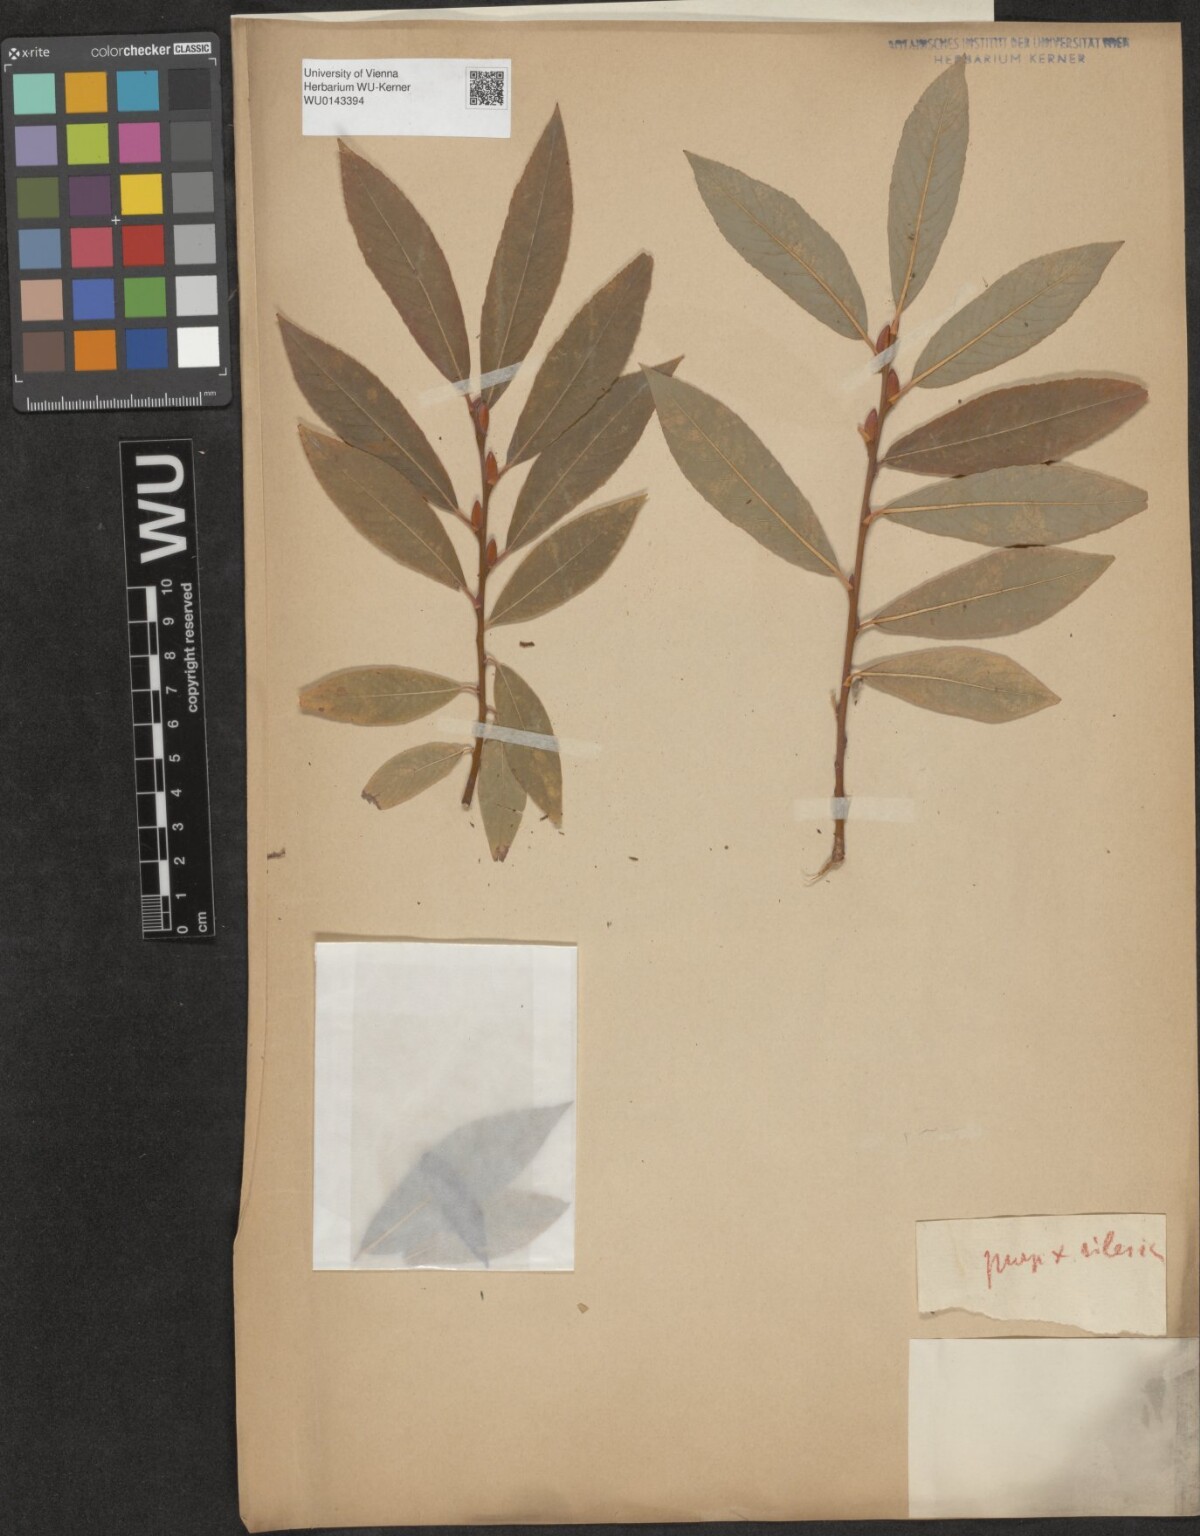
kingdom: Plantae
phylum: Tracheophyta
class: Magnoliopsida
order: Malpighiales
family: Salicaceae
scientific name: Salicaceae
